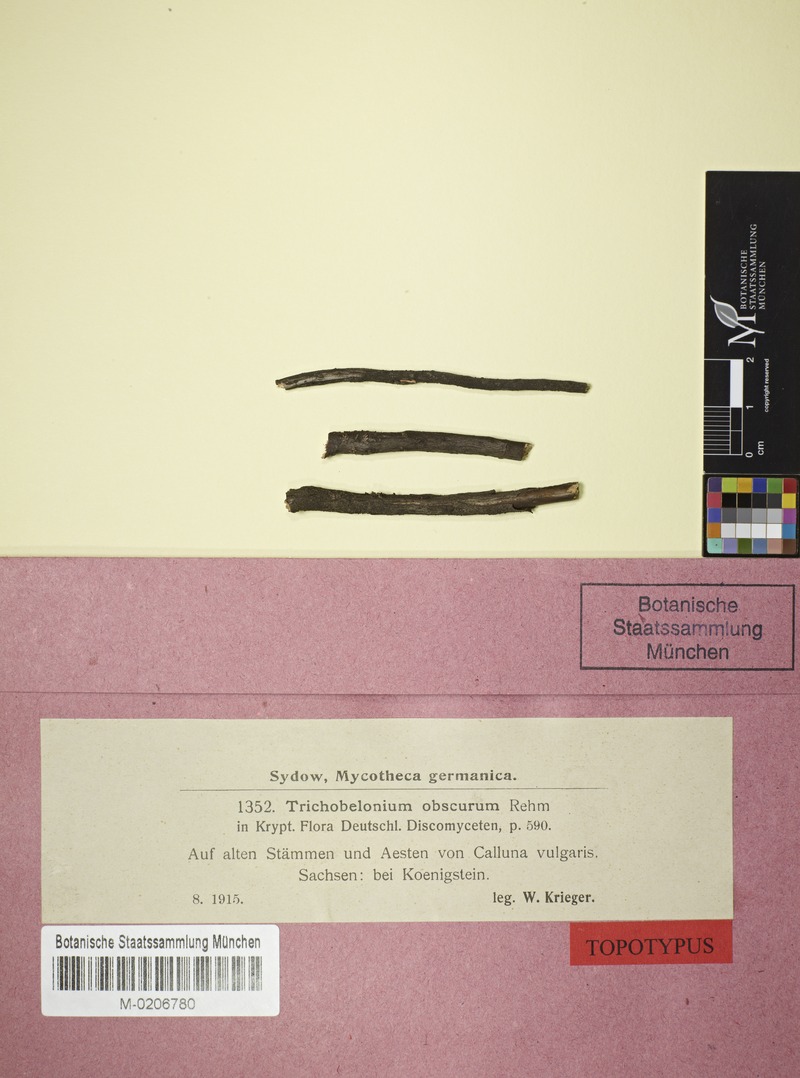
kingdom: Plantae
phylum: Tracheophyta
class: Magnoliopsida
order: Ericales
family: Ericaceae
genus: Calluna
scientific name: Calluna vulgaris
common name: Heather
